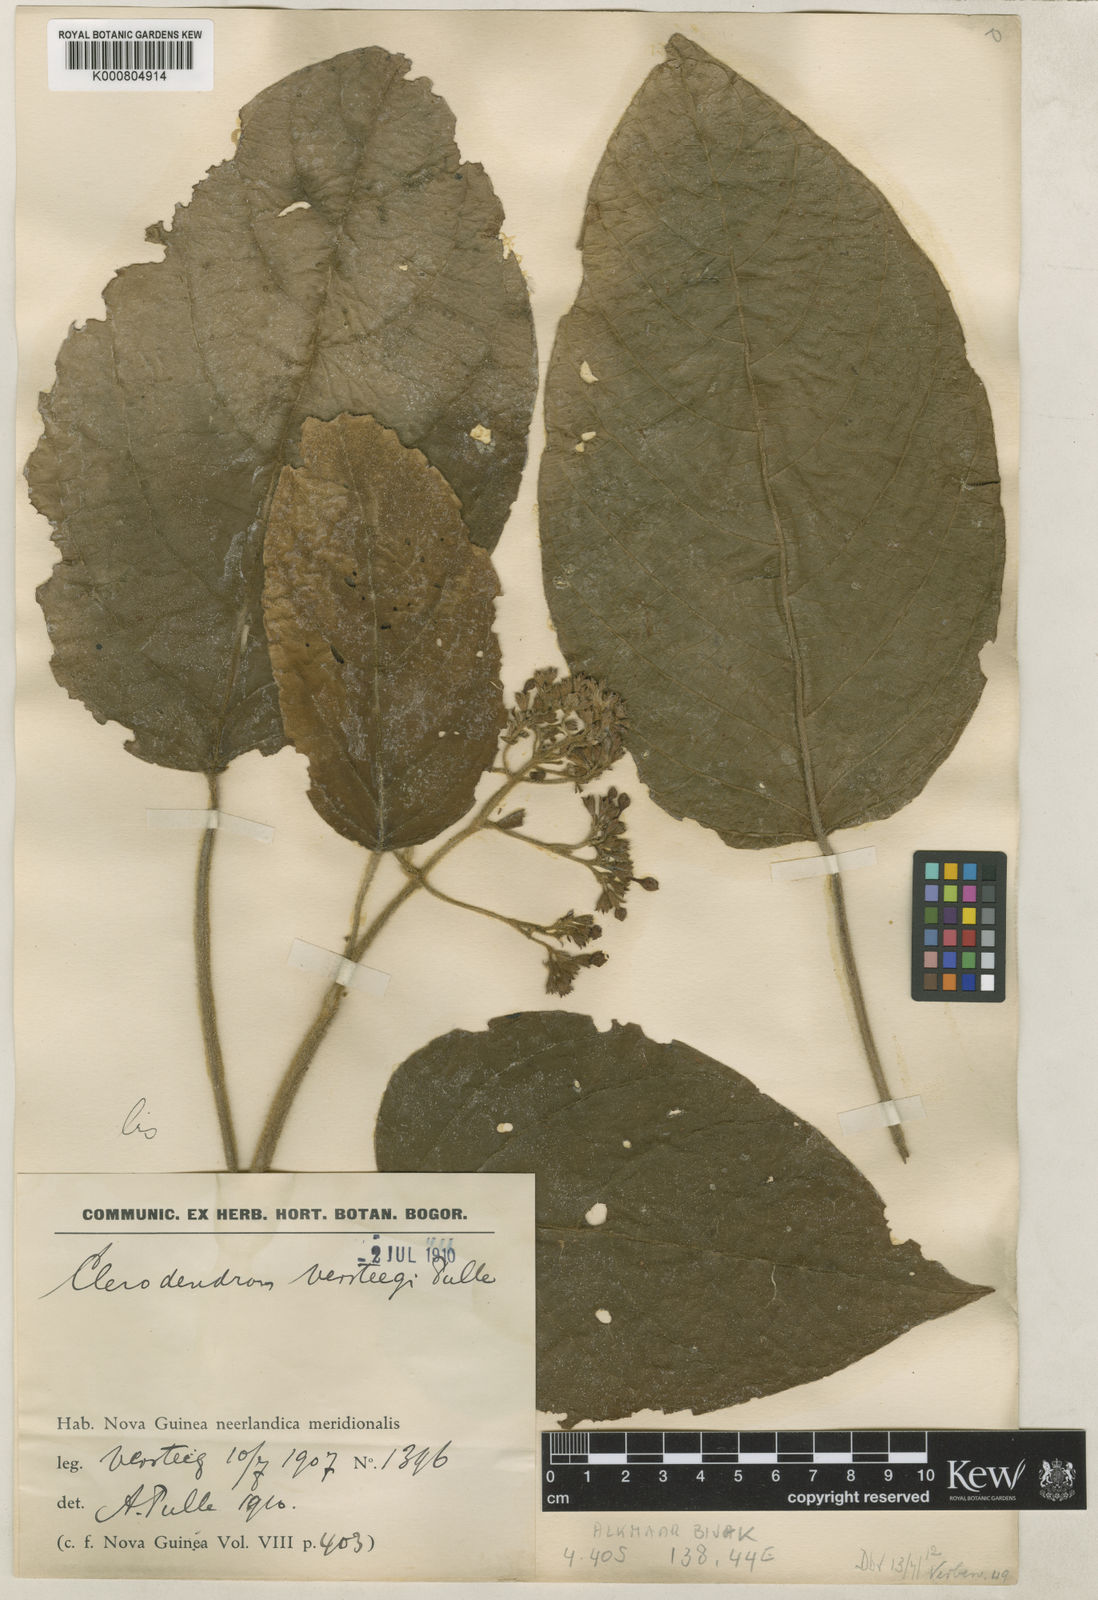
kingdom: Plantae
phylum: Tracheophyta
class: Magnoliopsida
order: Lamiales
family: Lamiaceae
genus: Clerodendrum
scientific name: Clerodendrum tracyanum
